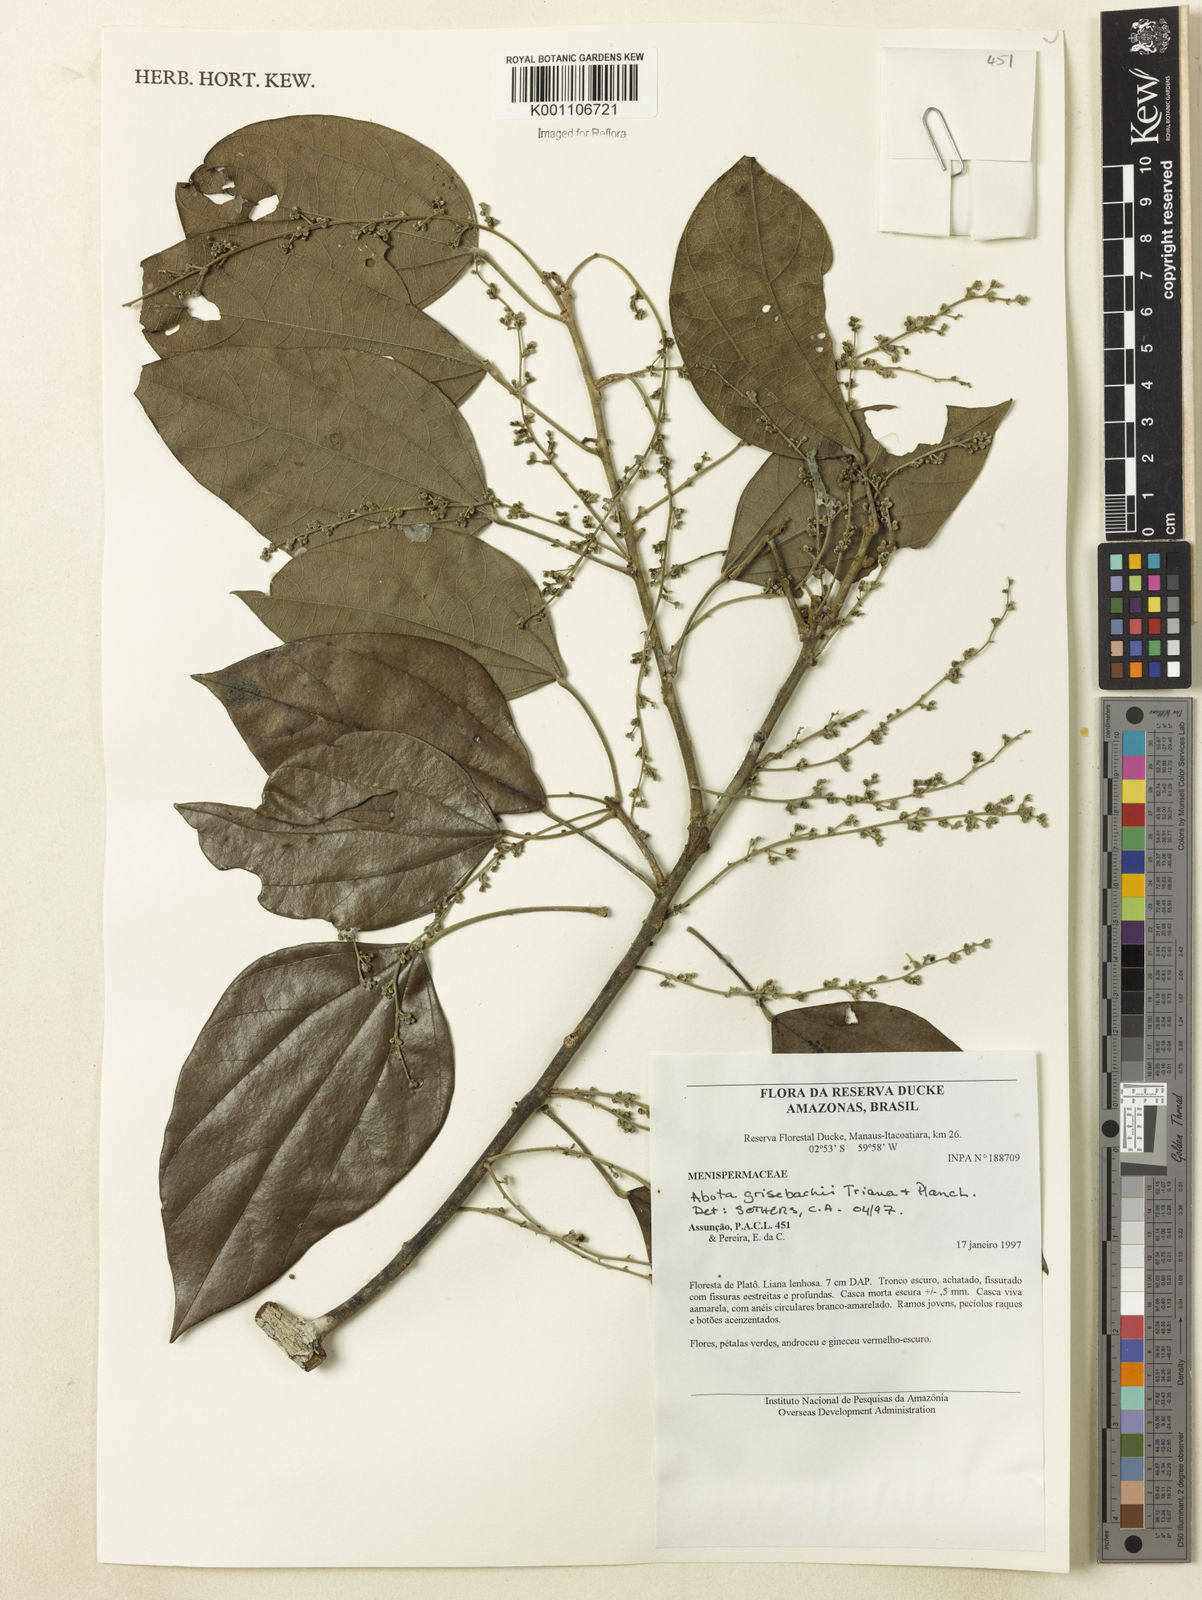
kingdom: Plantae
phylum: Tracheophyta
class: Magnoliopsida
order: Ranunculales
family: Menispermaceae
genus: Abuta
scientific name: Abuta grisebachii
